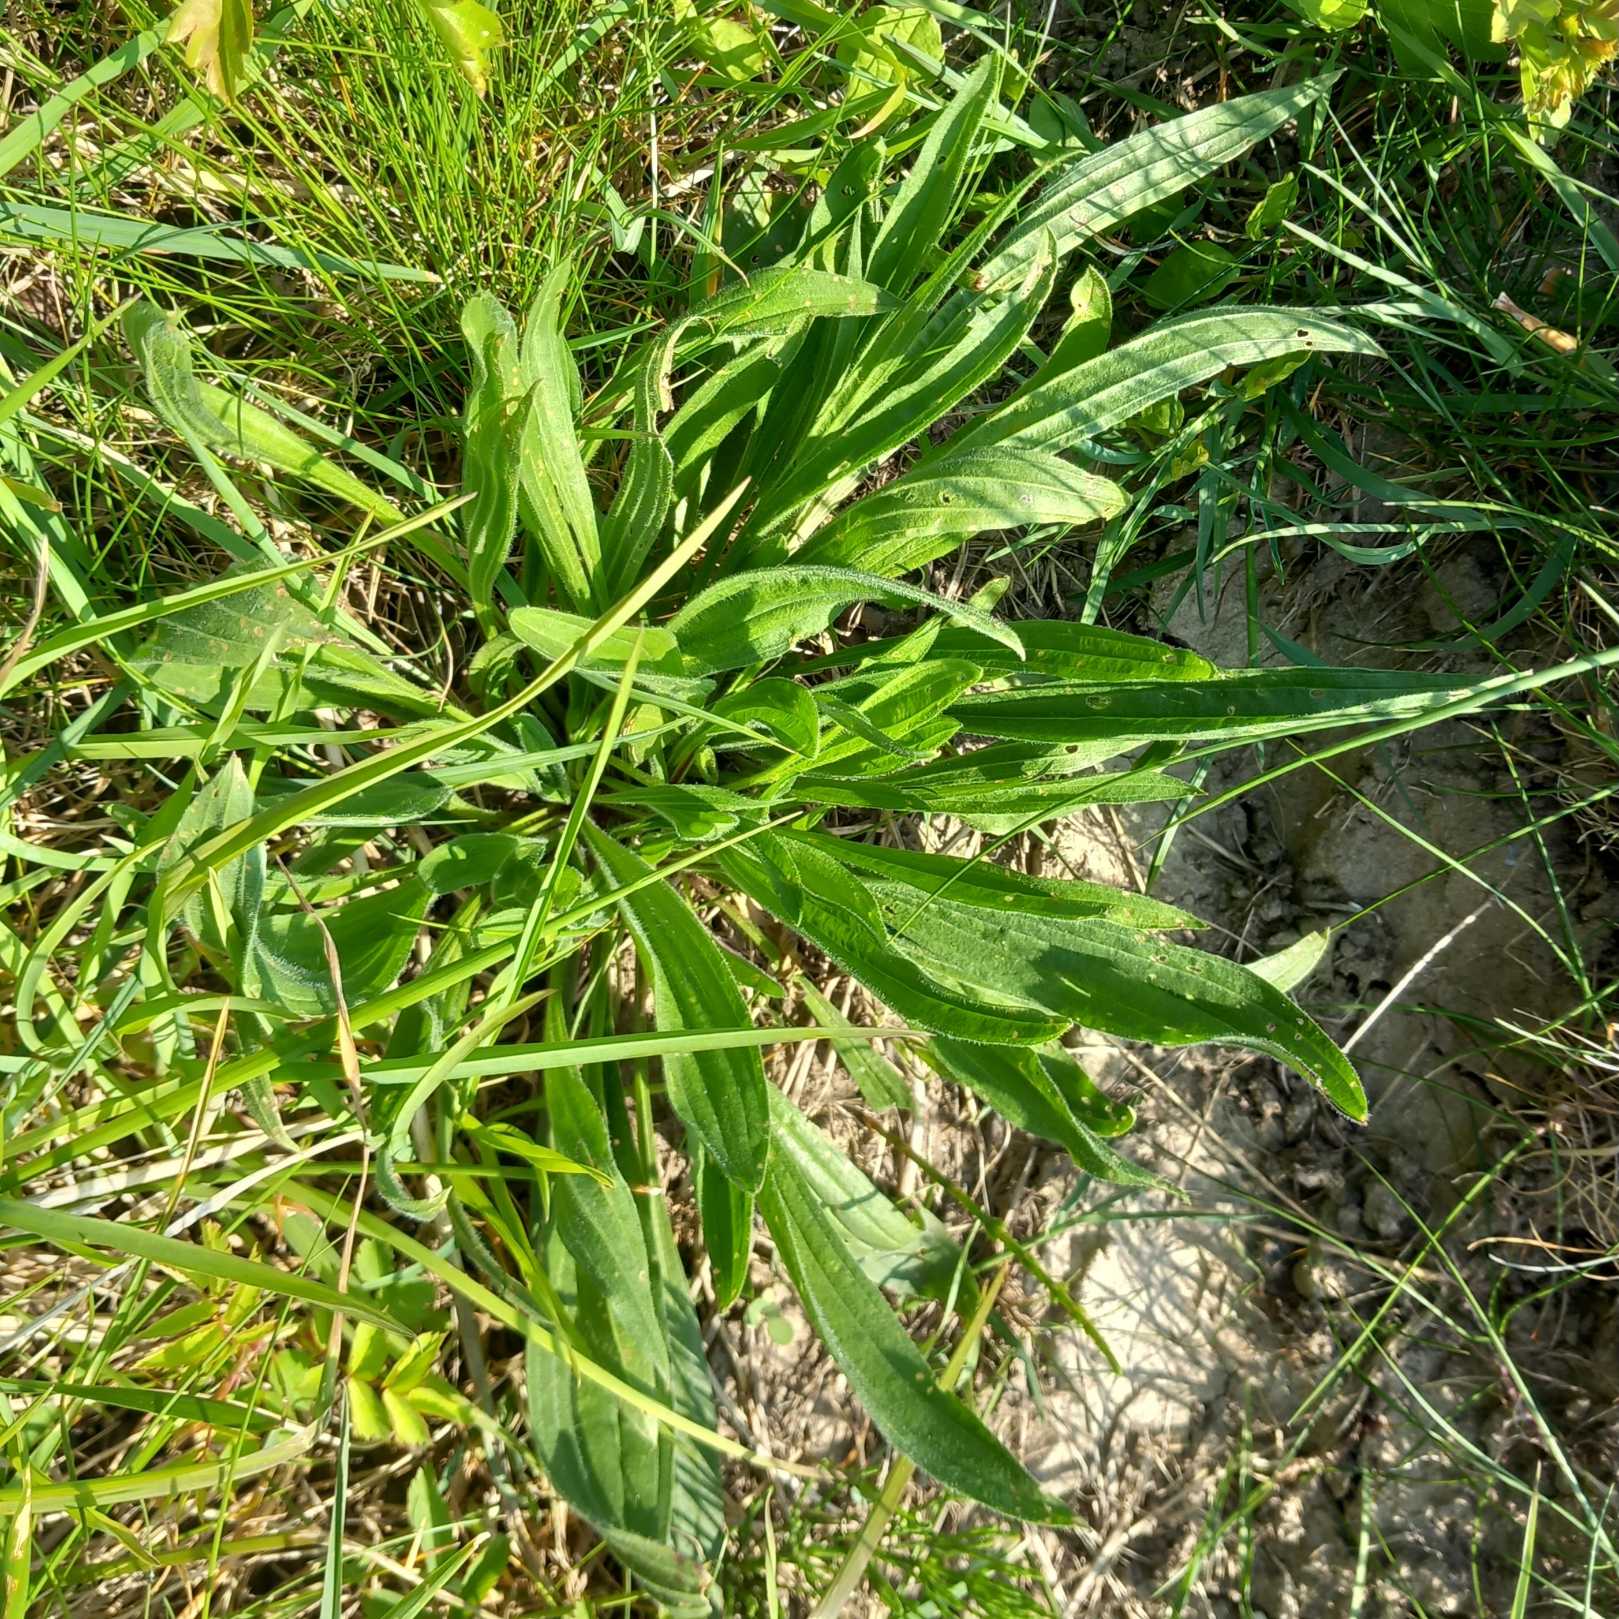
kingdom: Plantae
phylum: Tracheophyta
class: Magnoliopsida
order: Lamiales
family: Plantaginaceae
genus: Plantago
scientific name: Plantago lanceolata
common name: Lancet-vejbred
